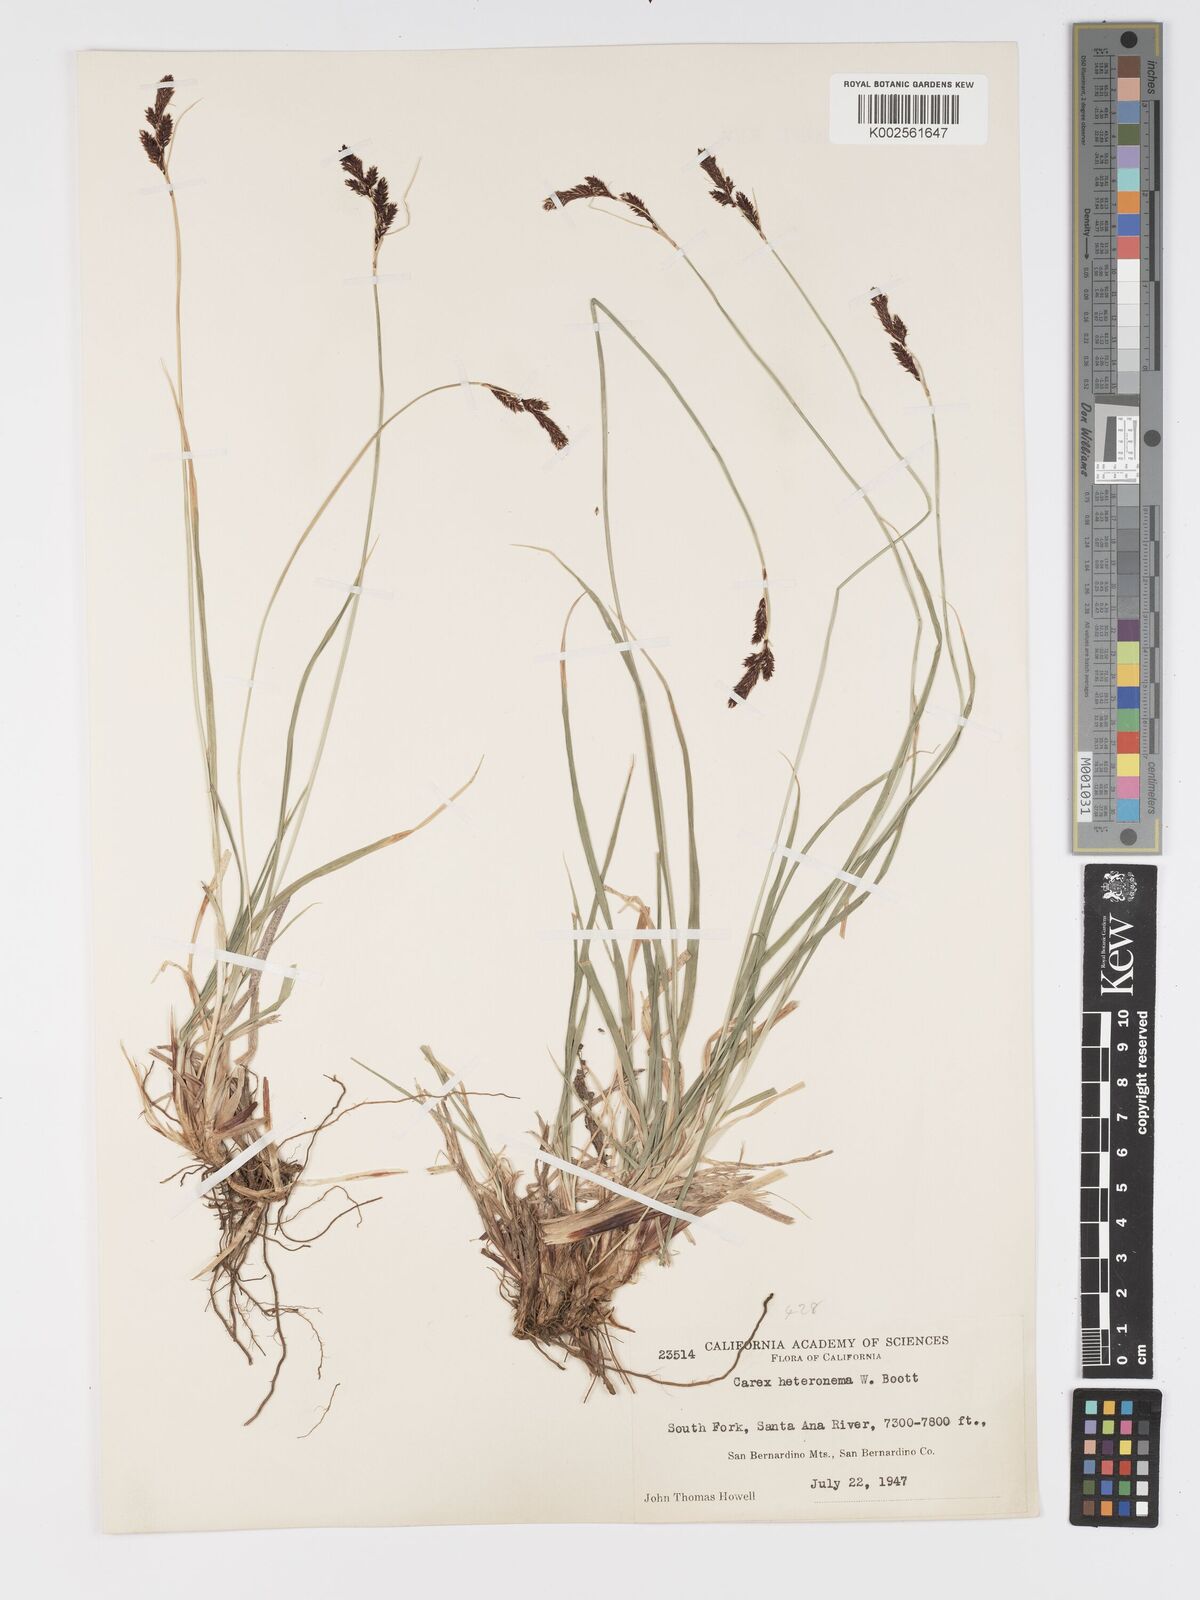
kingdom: Plantae
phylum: Tracheophyta
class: Liliopsida
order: Poales
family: Cyperaceae
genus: Carex
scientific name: Carex heteroneura
